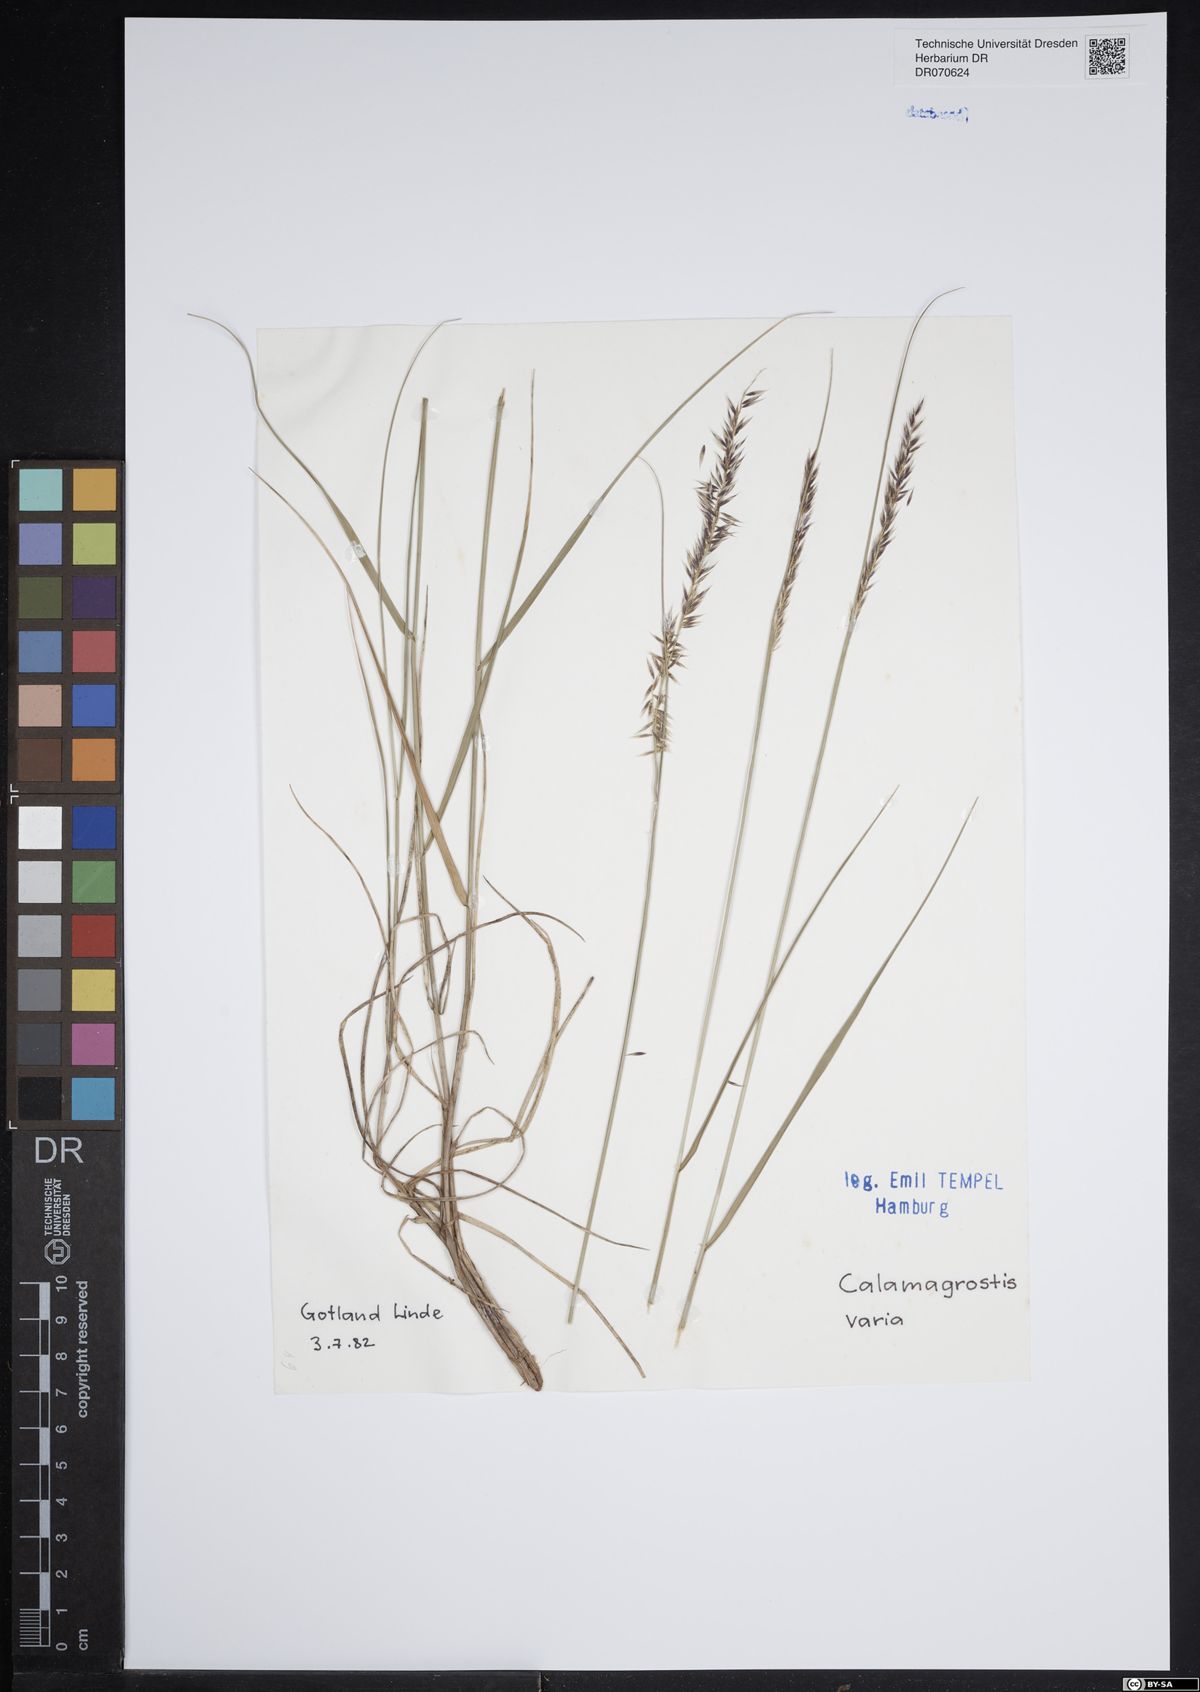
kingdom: Plantae
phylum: Tracheophyta
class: Liliopsida
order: Poales
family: Poaceae
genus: Calamagrostis
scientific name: Calamagrostis varia
